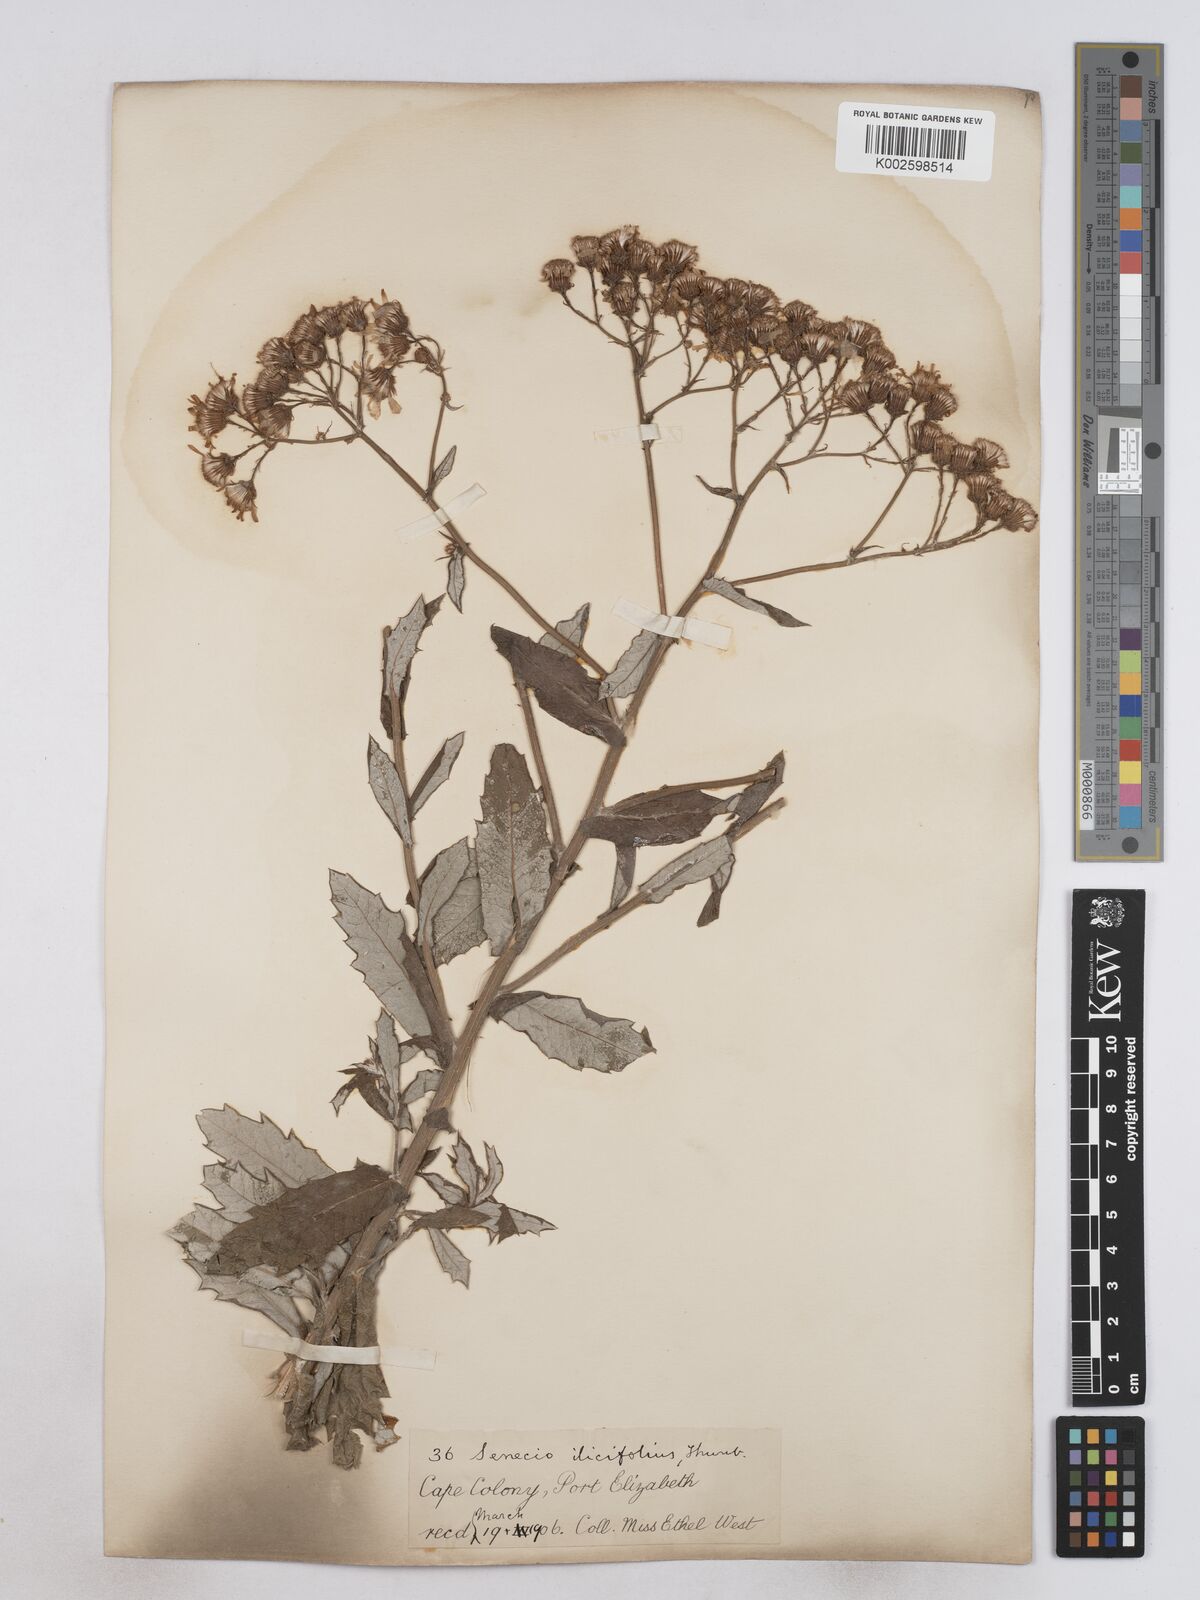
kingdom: Plantae
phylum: Tracheophyta
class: Magnoliopsida
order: Asterales
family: Asteraceae
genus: Senecio
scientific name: Senecio ilicifolius
